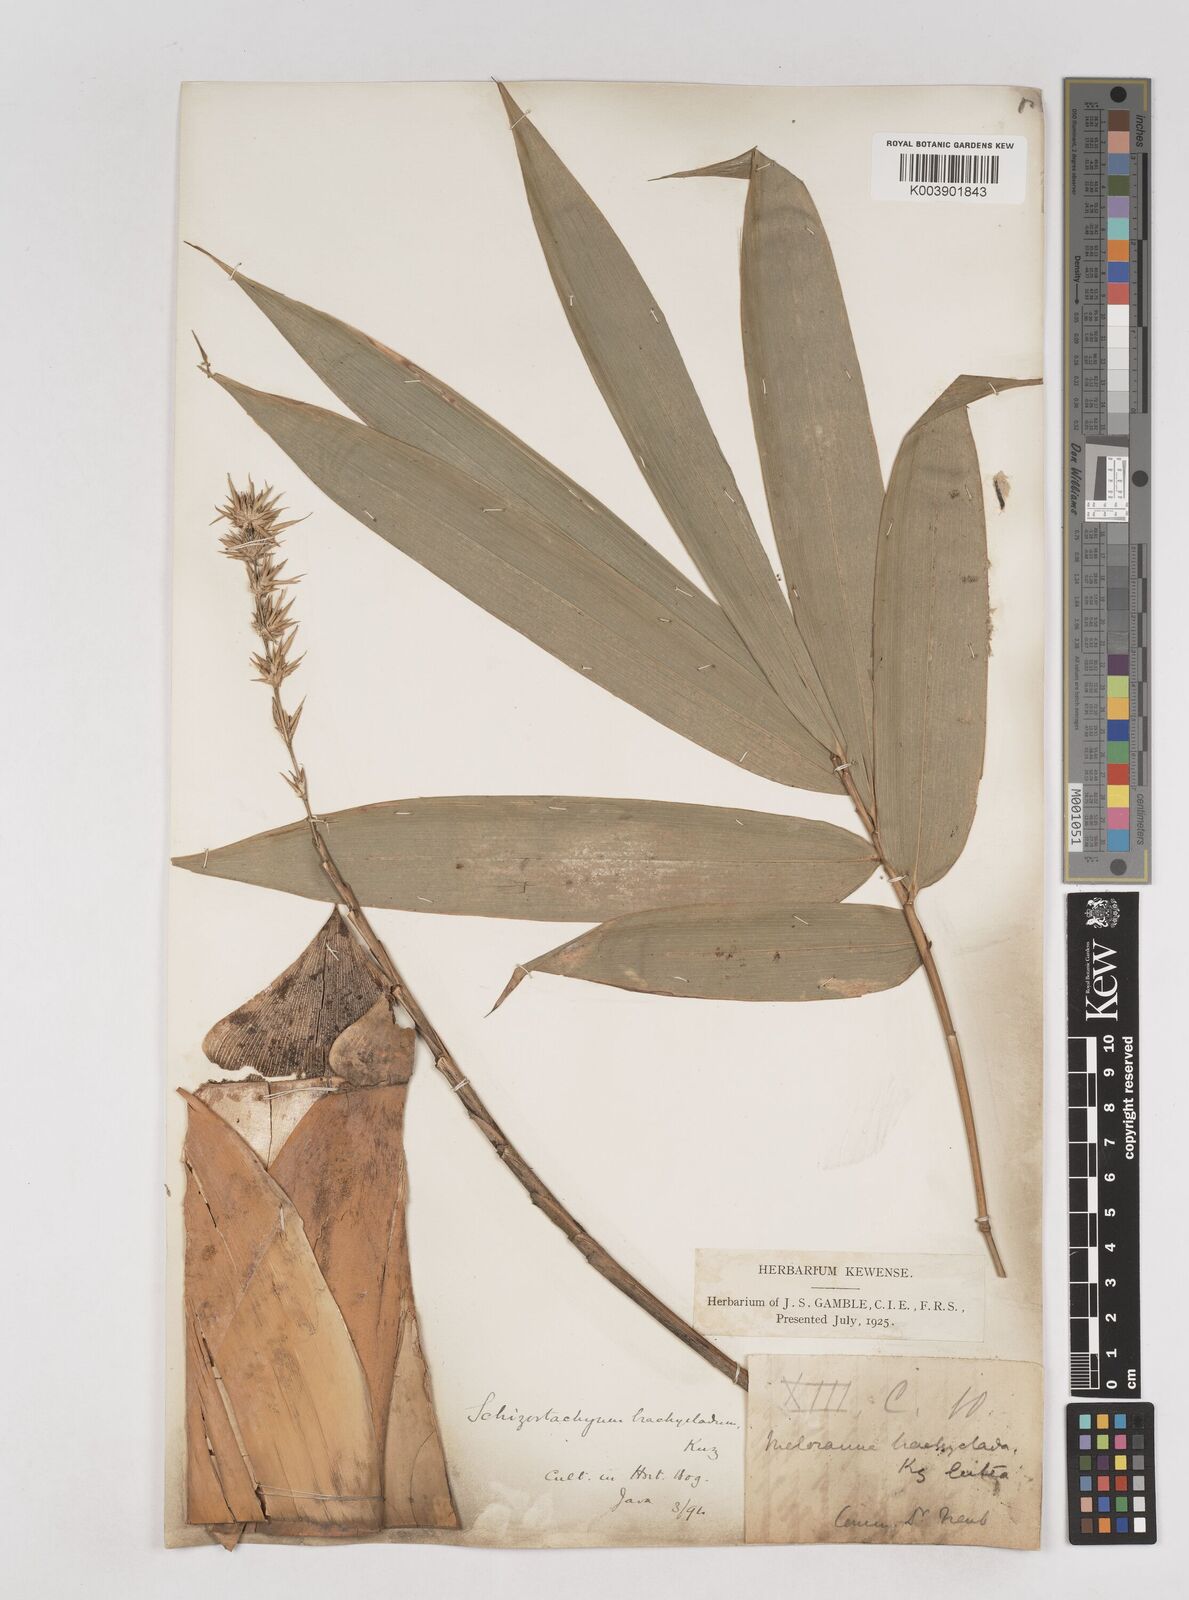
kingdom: Plantae
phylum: Tracheophyta
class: Liliopsida
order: Poales
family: Poaceae
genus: Schizostachyum
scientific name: Schizostachyum brachycladum
